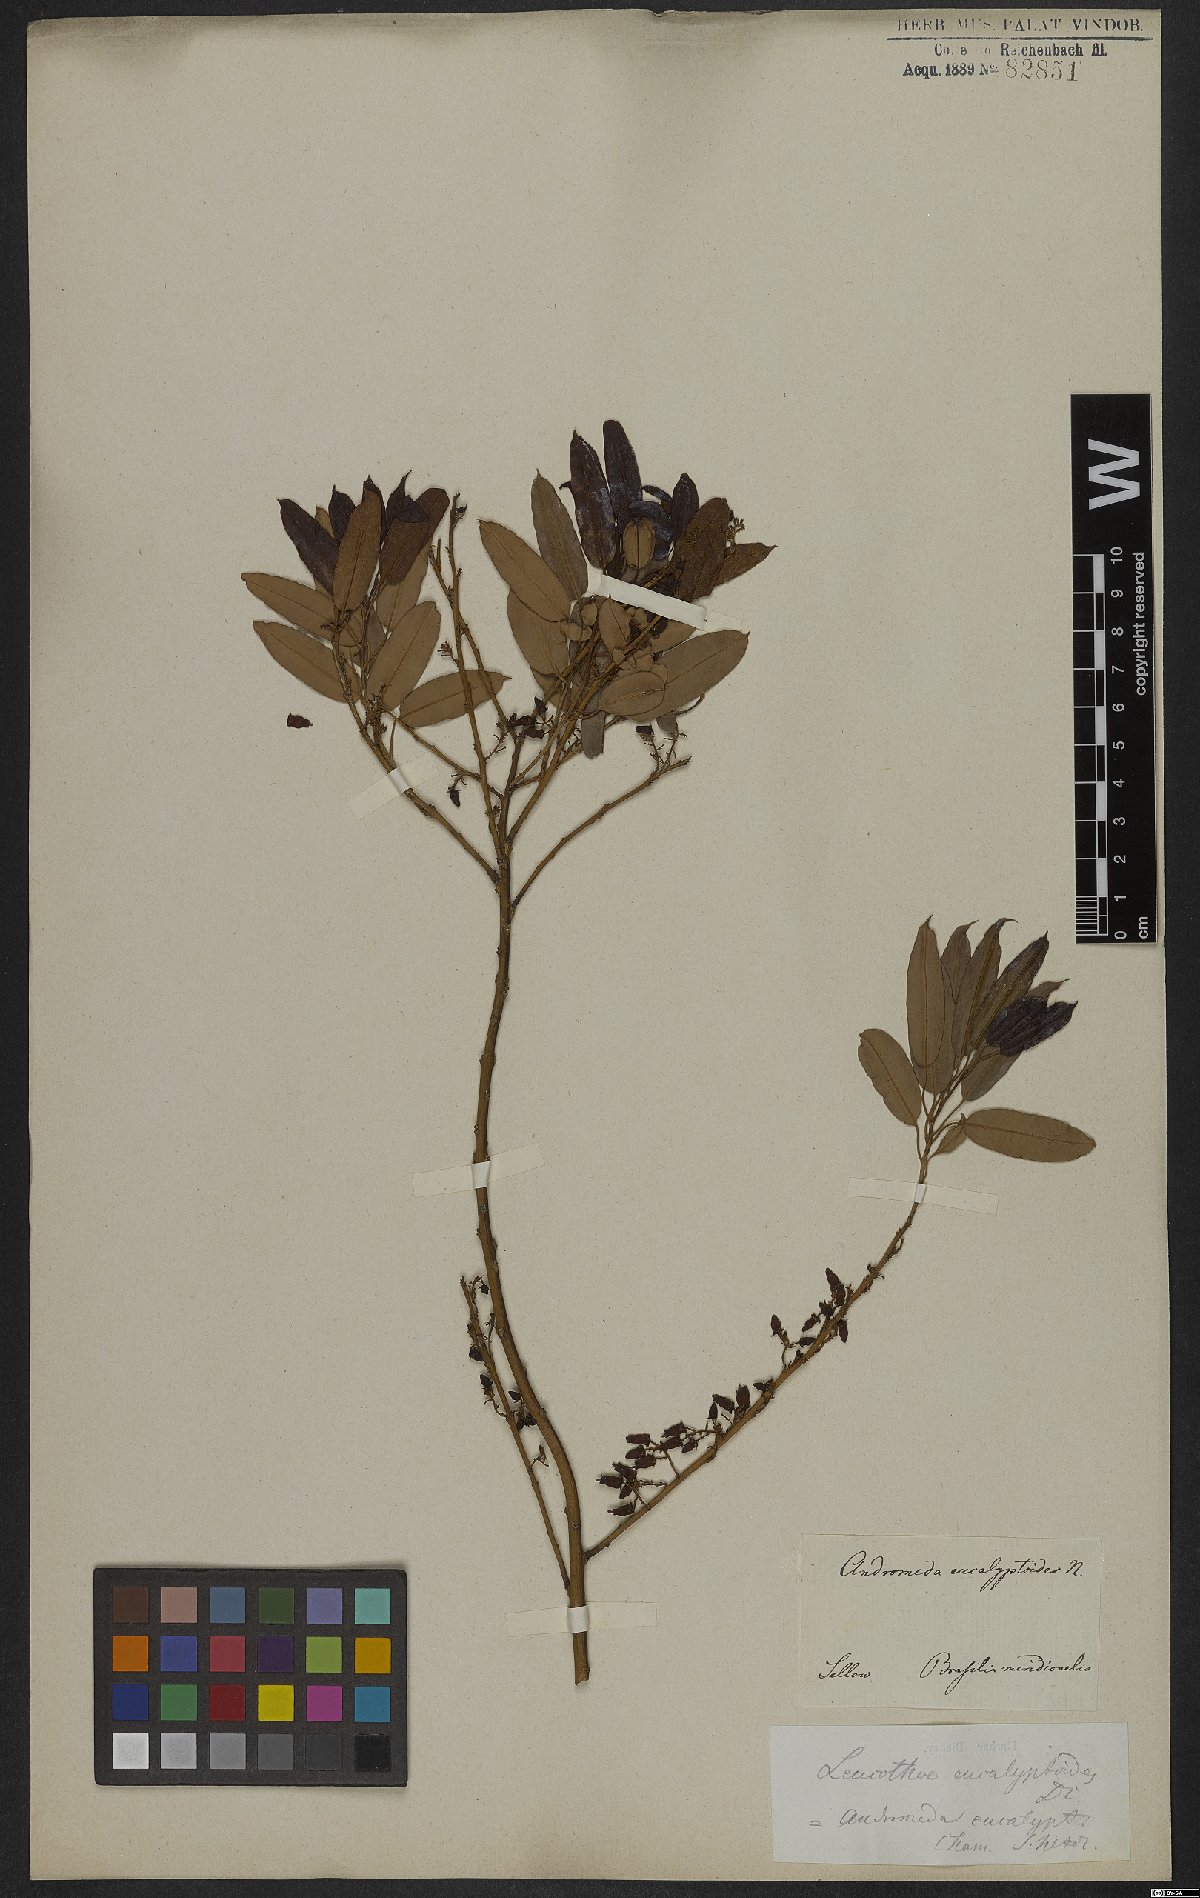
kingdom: Plantae
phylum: Tracheophyta
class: Magnoliopsida
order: Ericales
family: Ericaceae
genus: Agarista
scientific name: Agarista eucalyptoides
